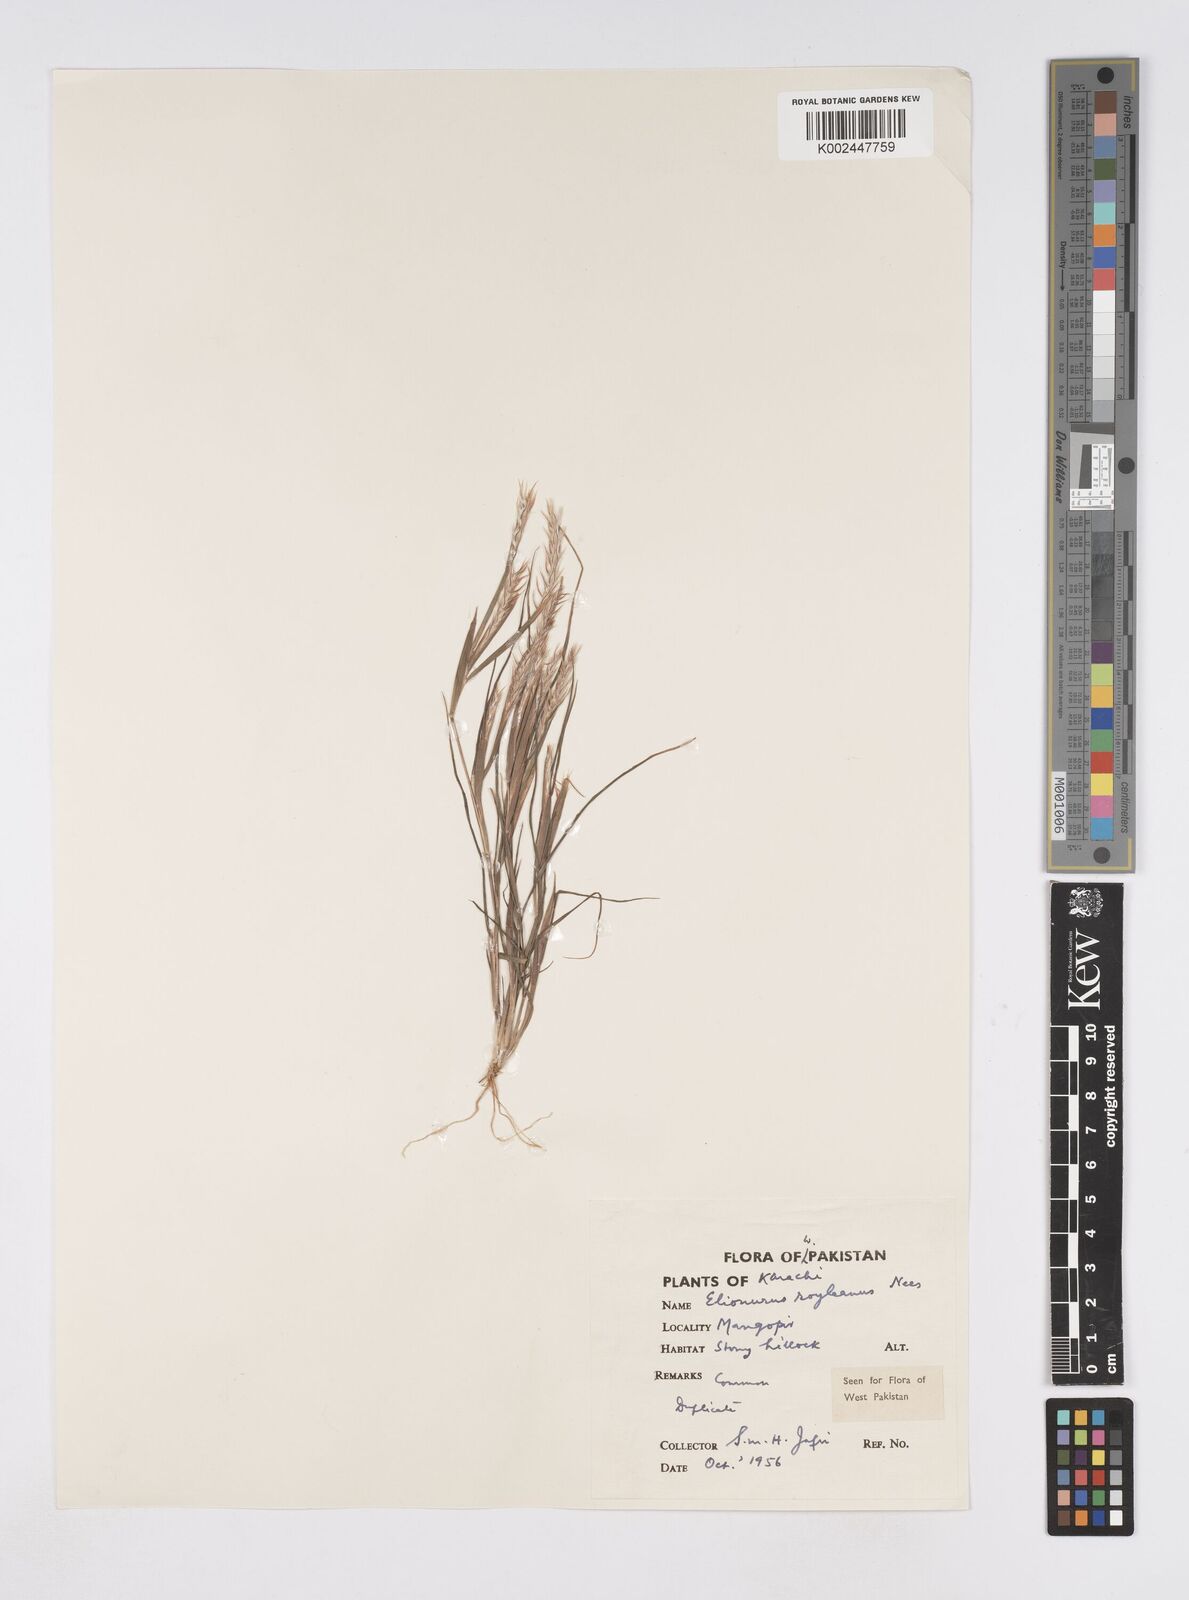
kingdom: Plantae
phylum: Tracheophyta
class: Liliopsida
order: Poales
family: Poaceae
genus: Elionurus
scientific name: Elionurus royleanus
